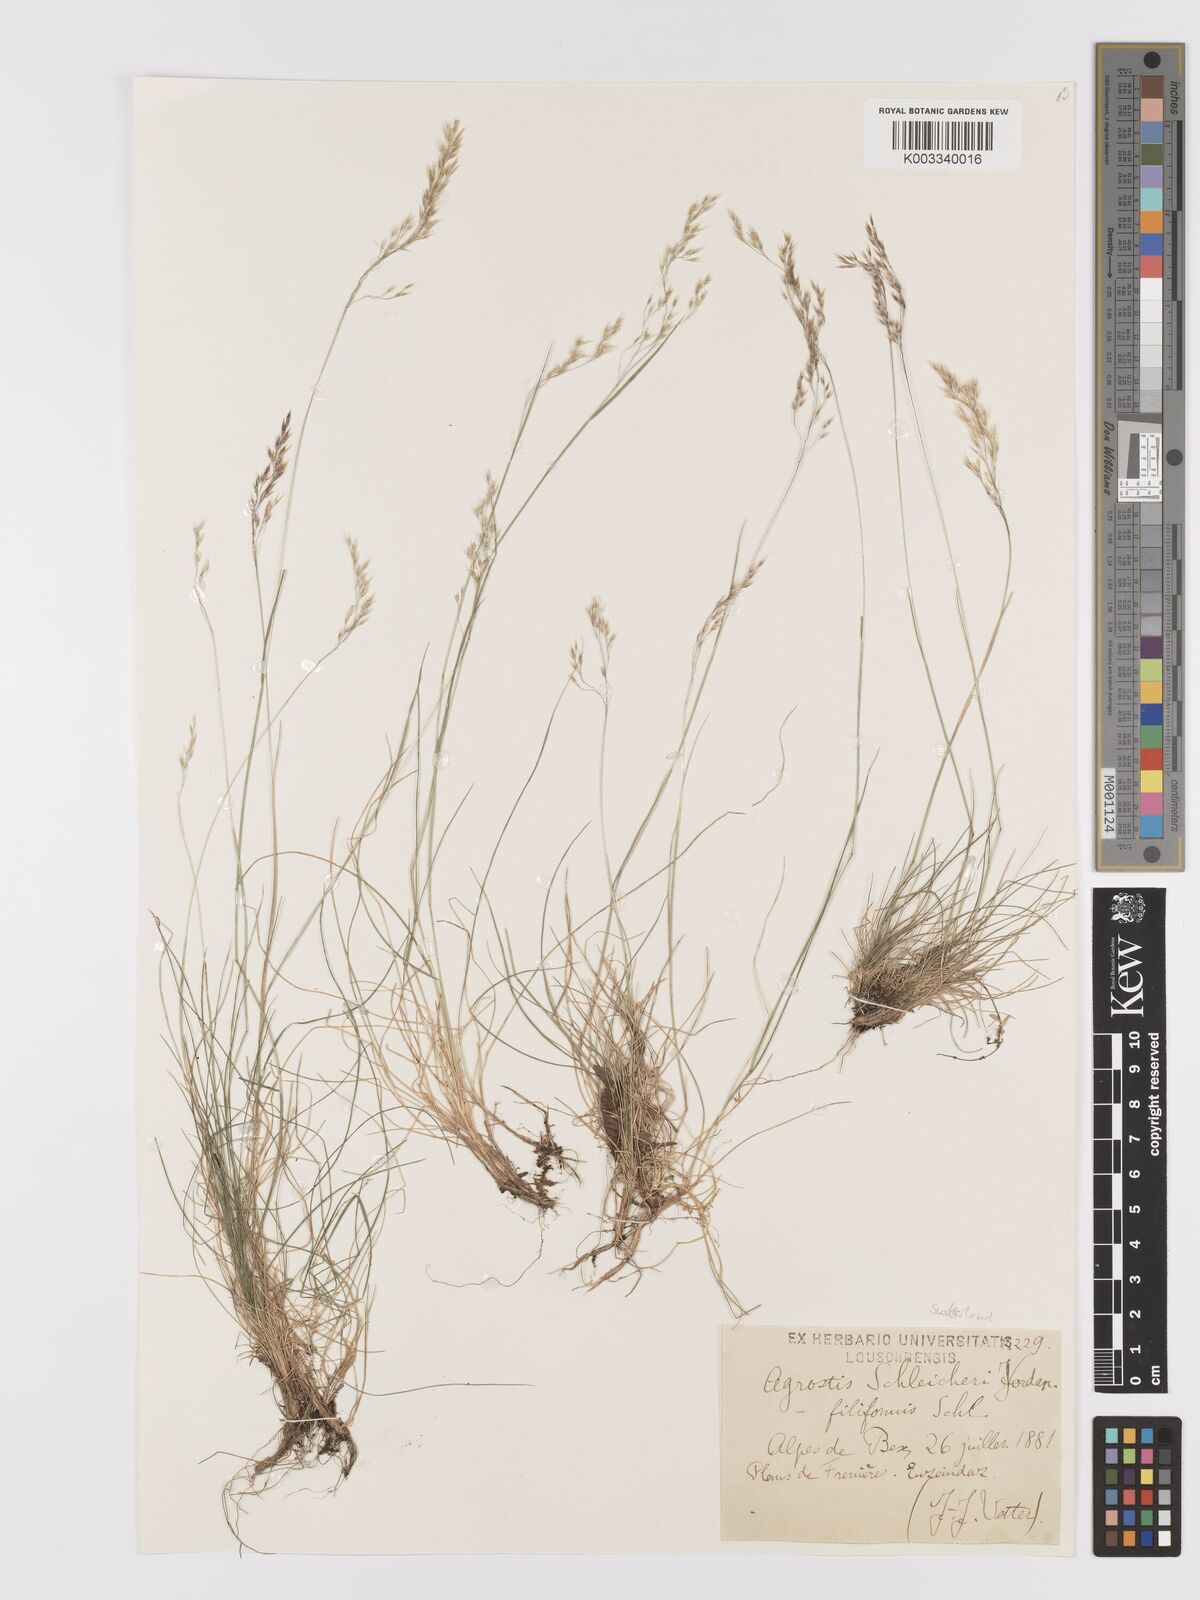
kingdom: Plantae
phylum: Tracheophyta
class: Liliopsida
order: Poales
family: Poaceae
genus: Alpagrostis
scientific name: Alpagrostis schleicheri
